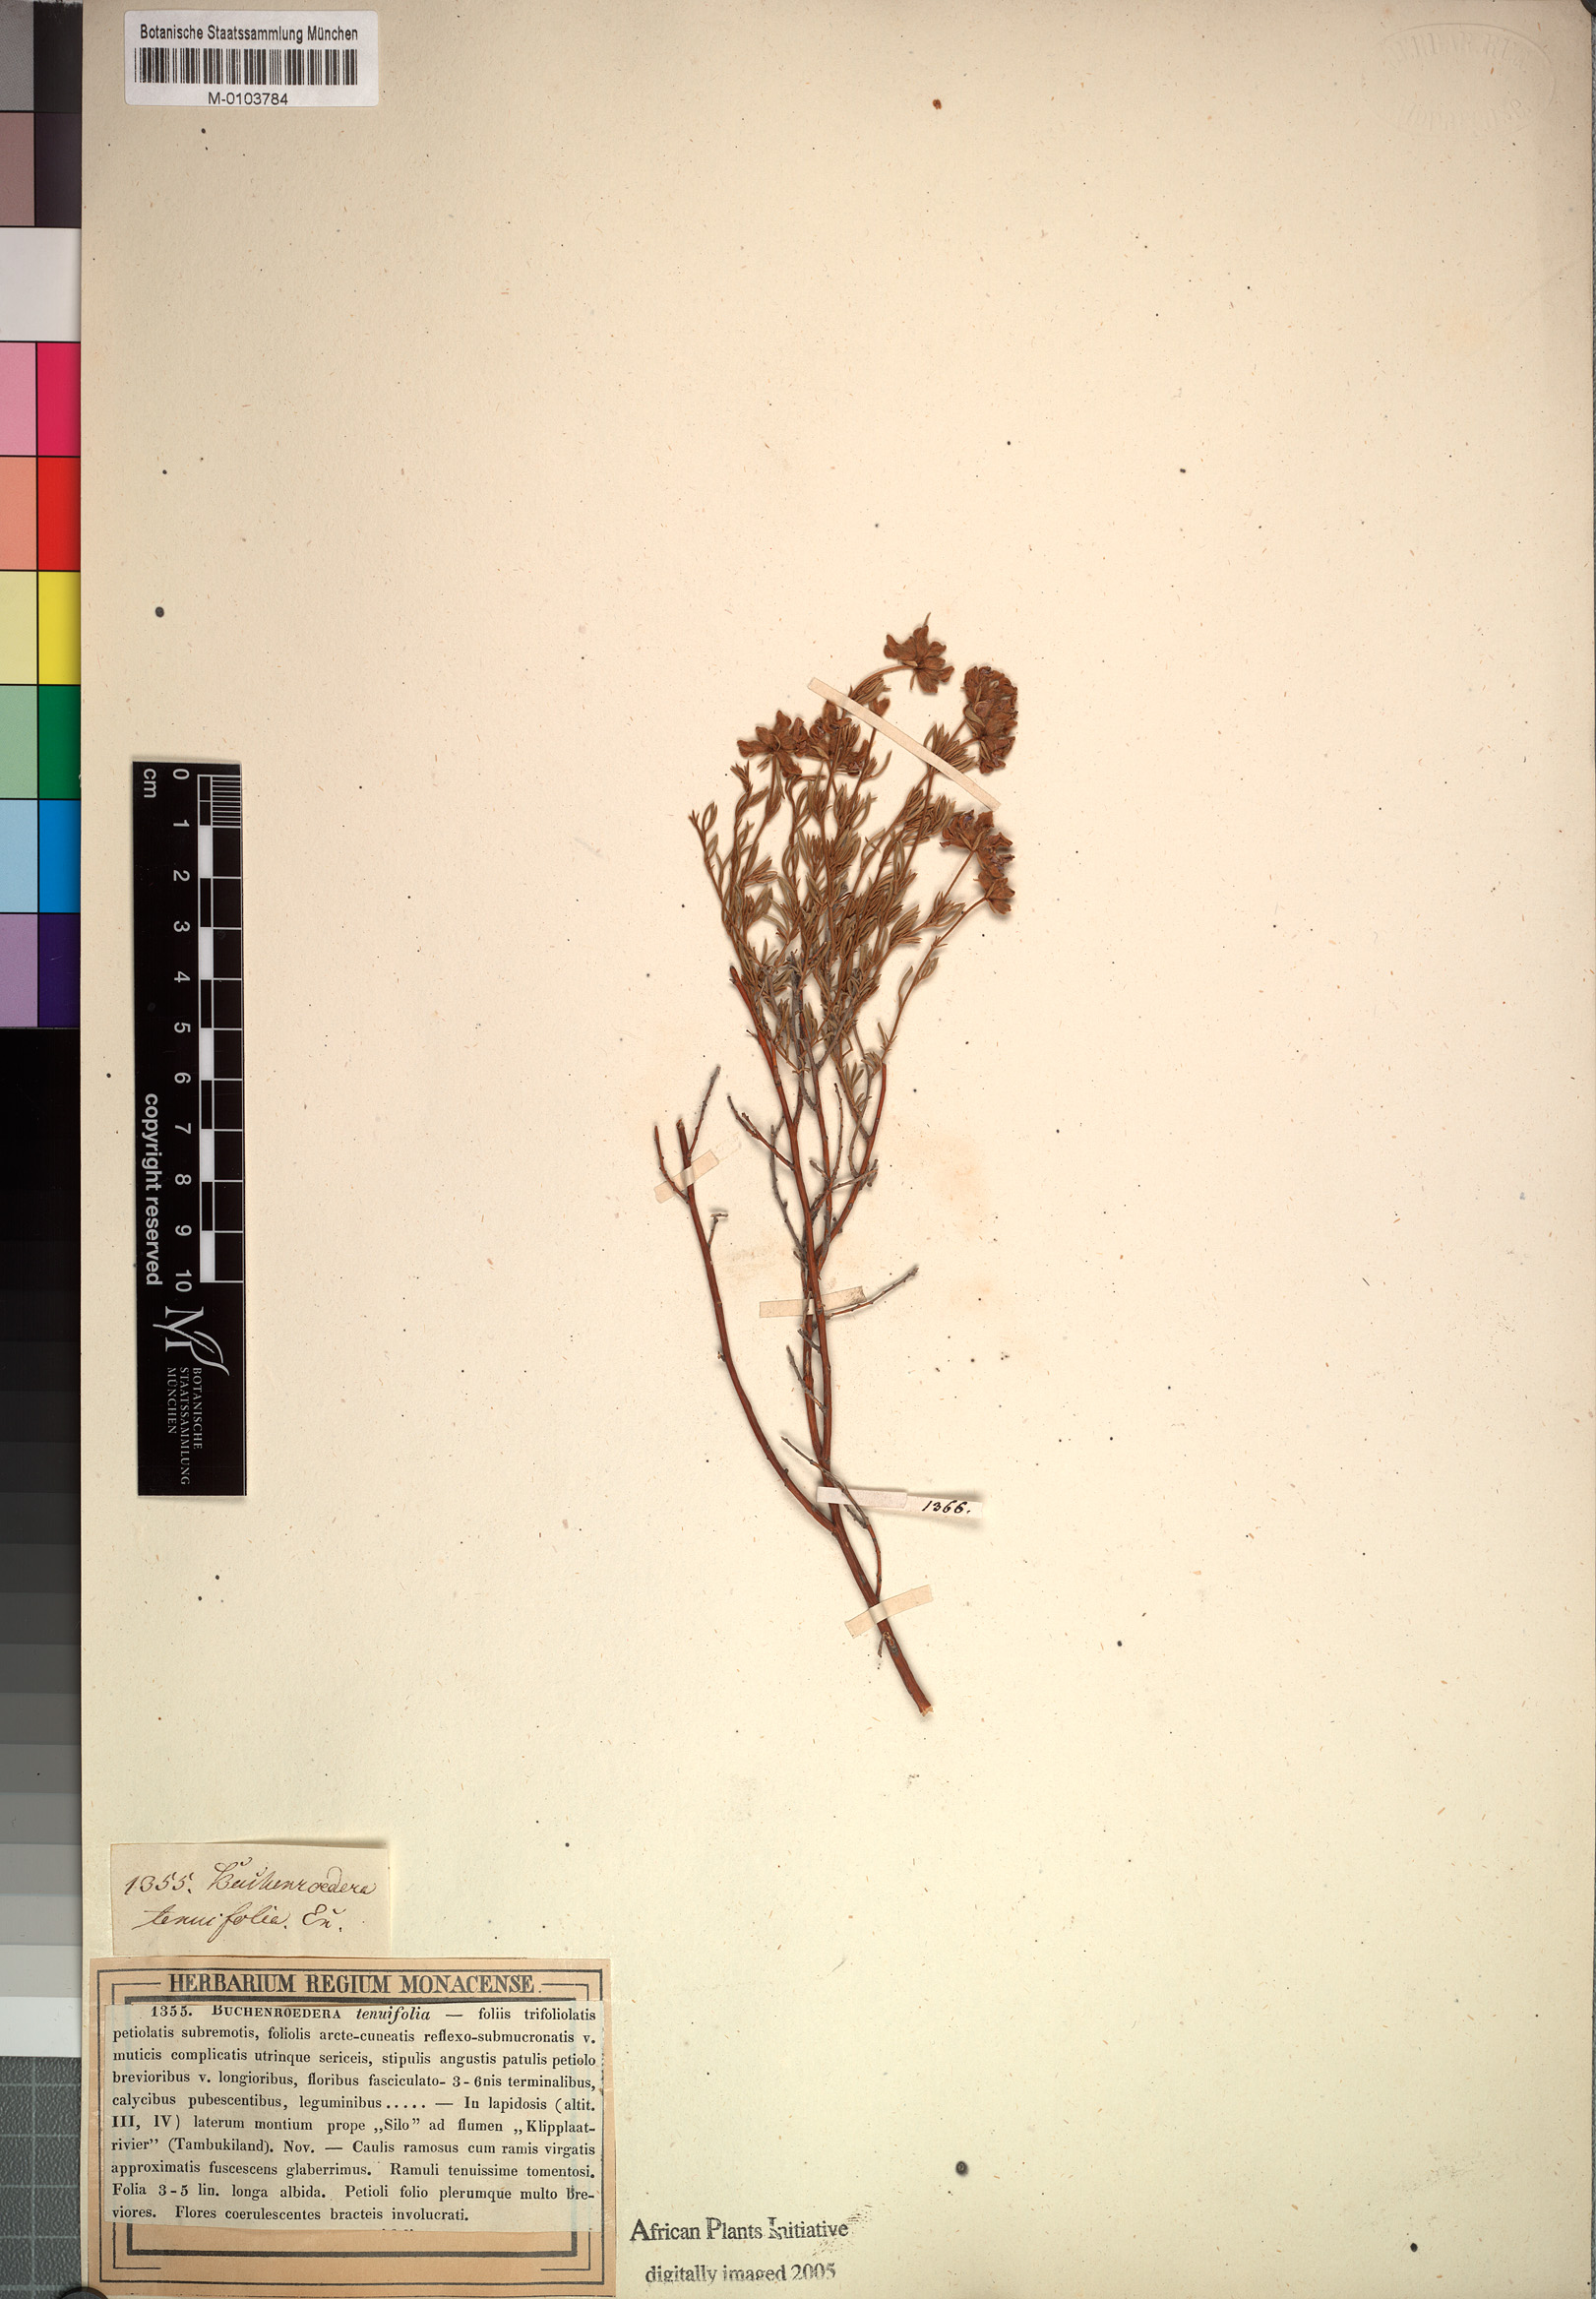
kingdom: Plantae
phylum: Tracheophyta
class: Magnoliopsida
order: Fabales
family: Fabaceae
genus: Lotononis
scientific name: Lotononis pulchella
